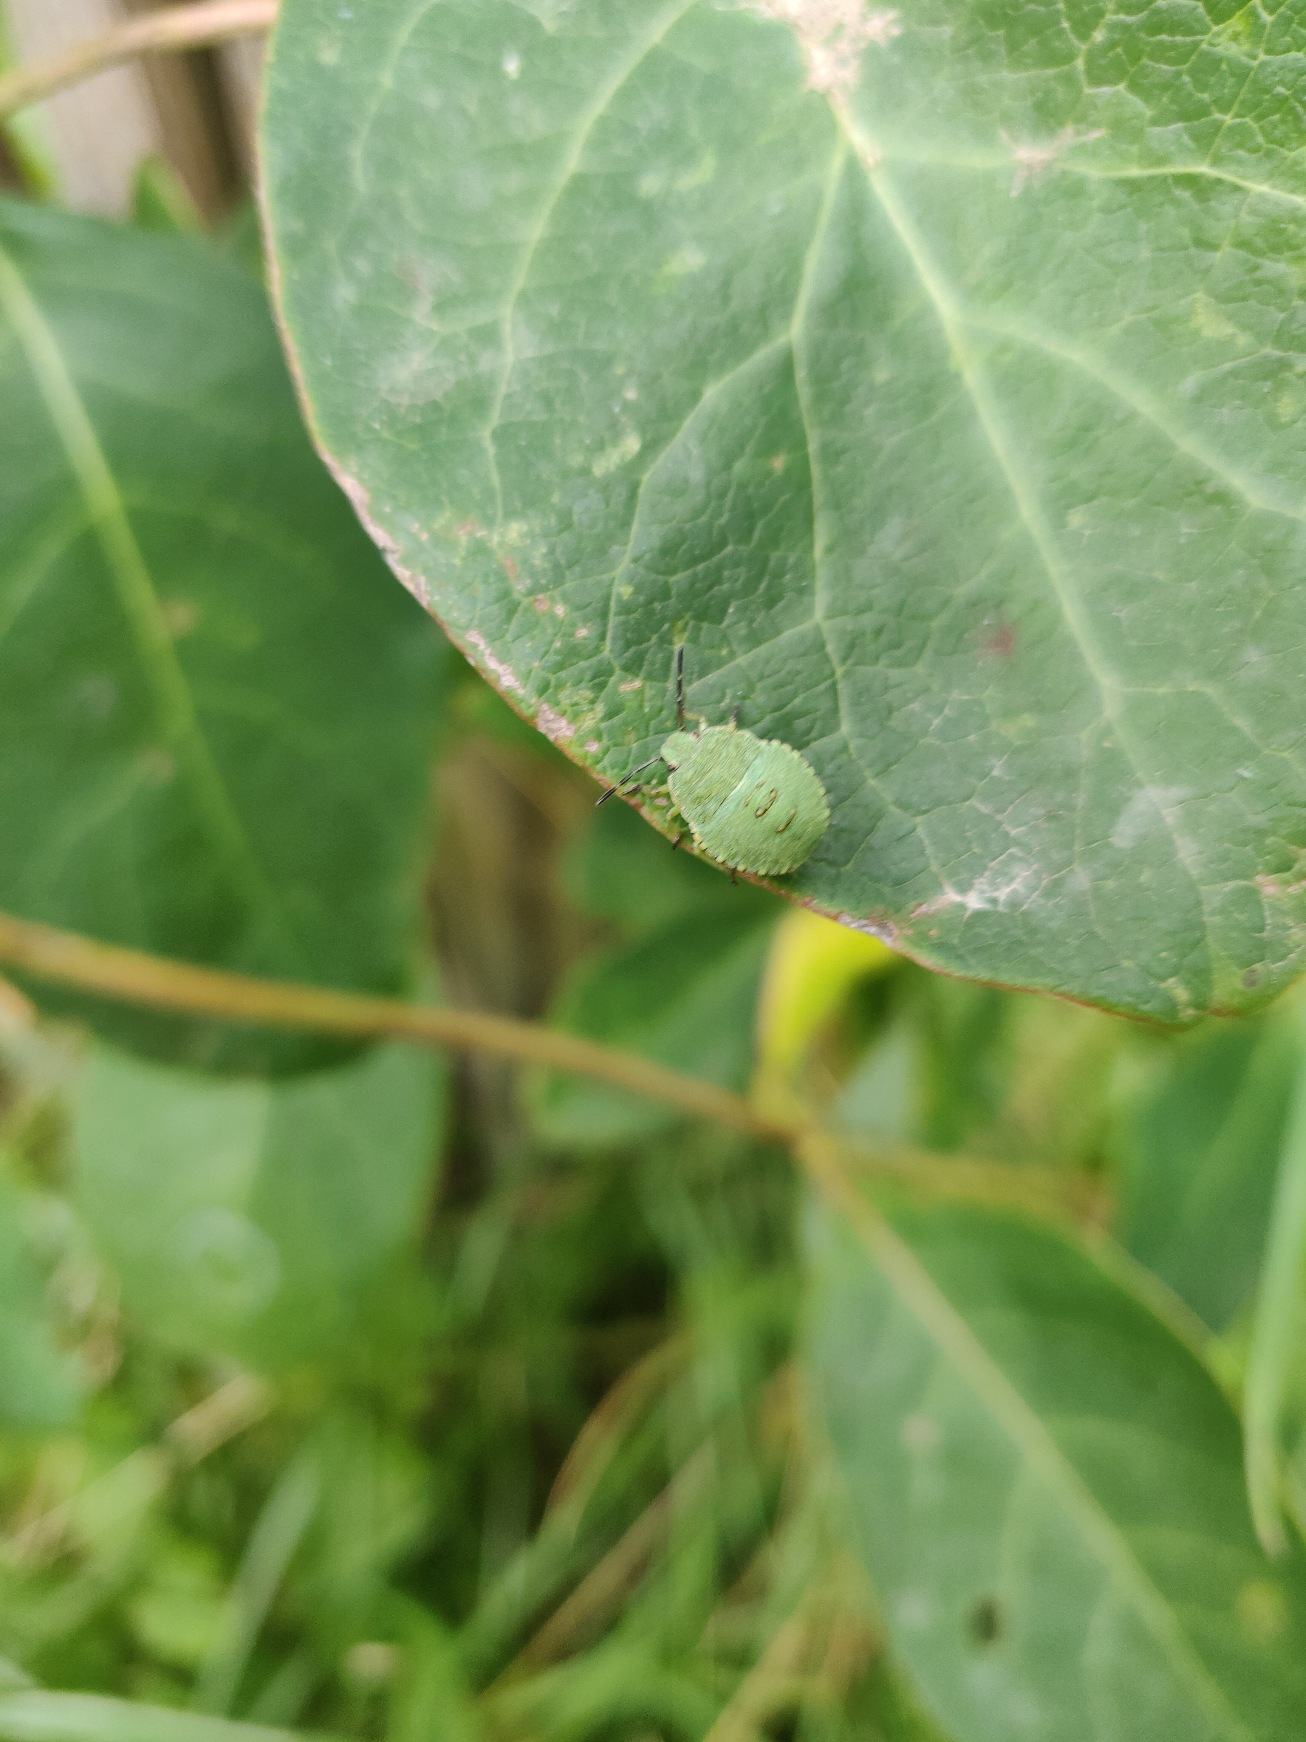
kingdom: Animalia
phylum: Arthropoda
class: Insecta
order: Hemiptera
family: Pentatomidae
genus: Palomena
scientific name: Palomena prasina
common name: Grøn bredtæge
